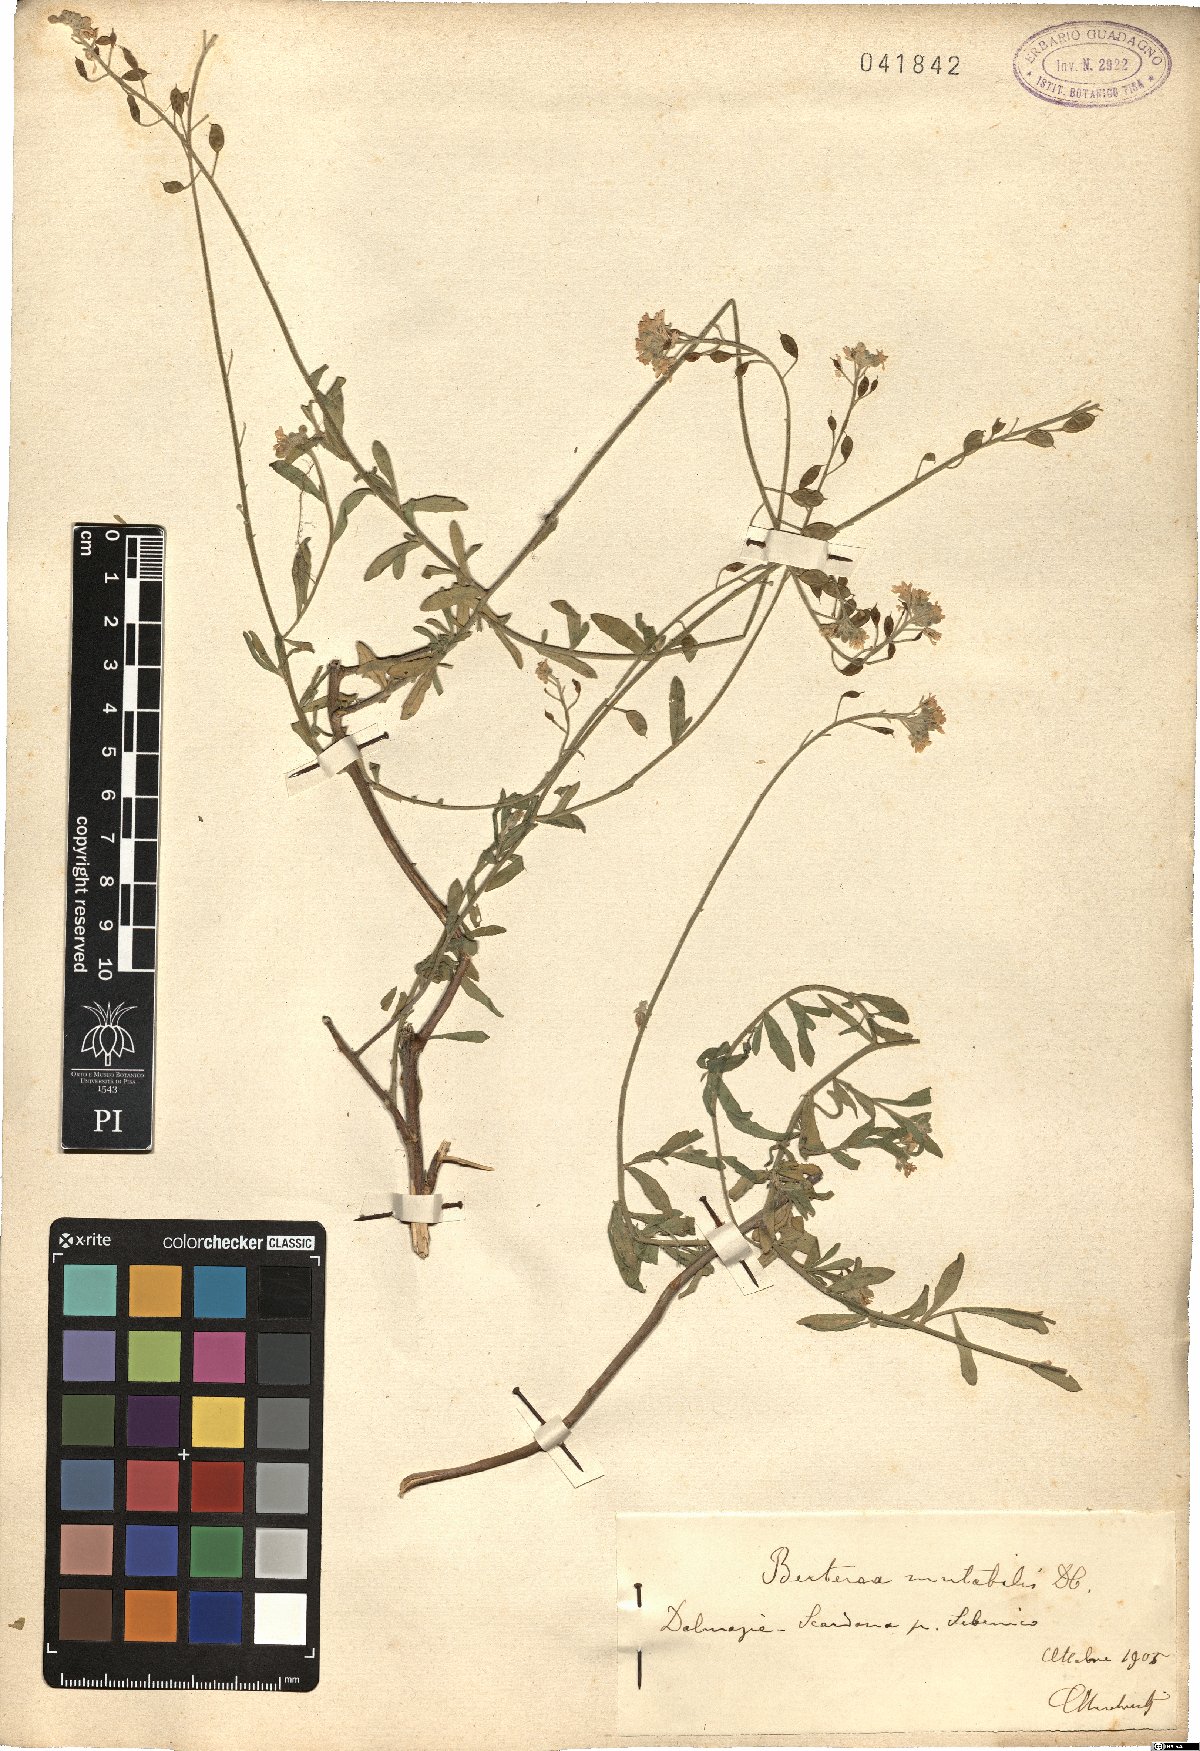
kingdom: Plantae
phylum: Tracheophyta
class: Magnoliopsida
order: Brassicales
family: Brassicaceae
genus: Berteroa
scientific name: Berteroa mutabilis
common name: Roadside false madwort
